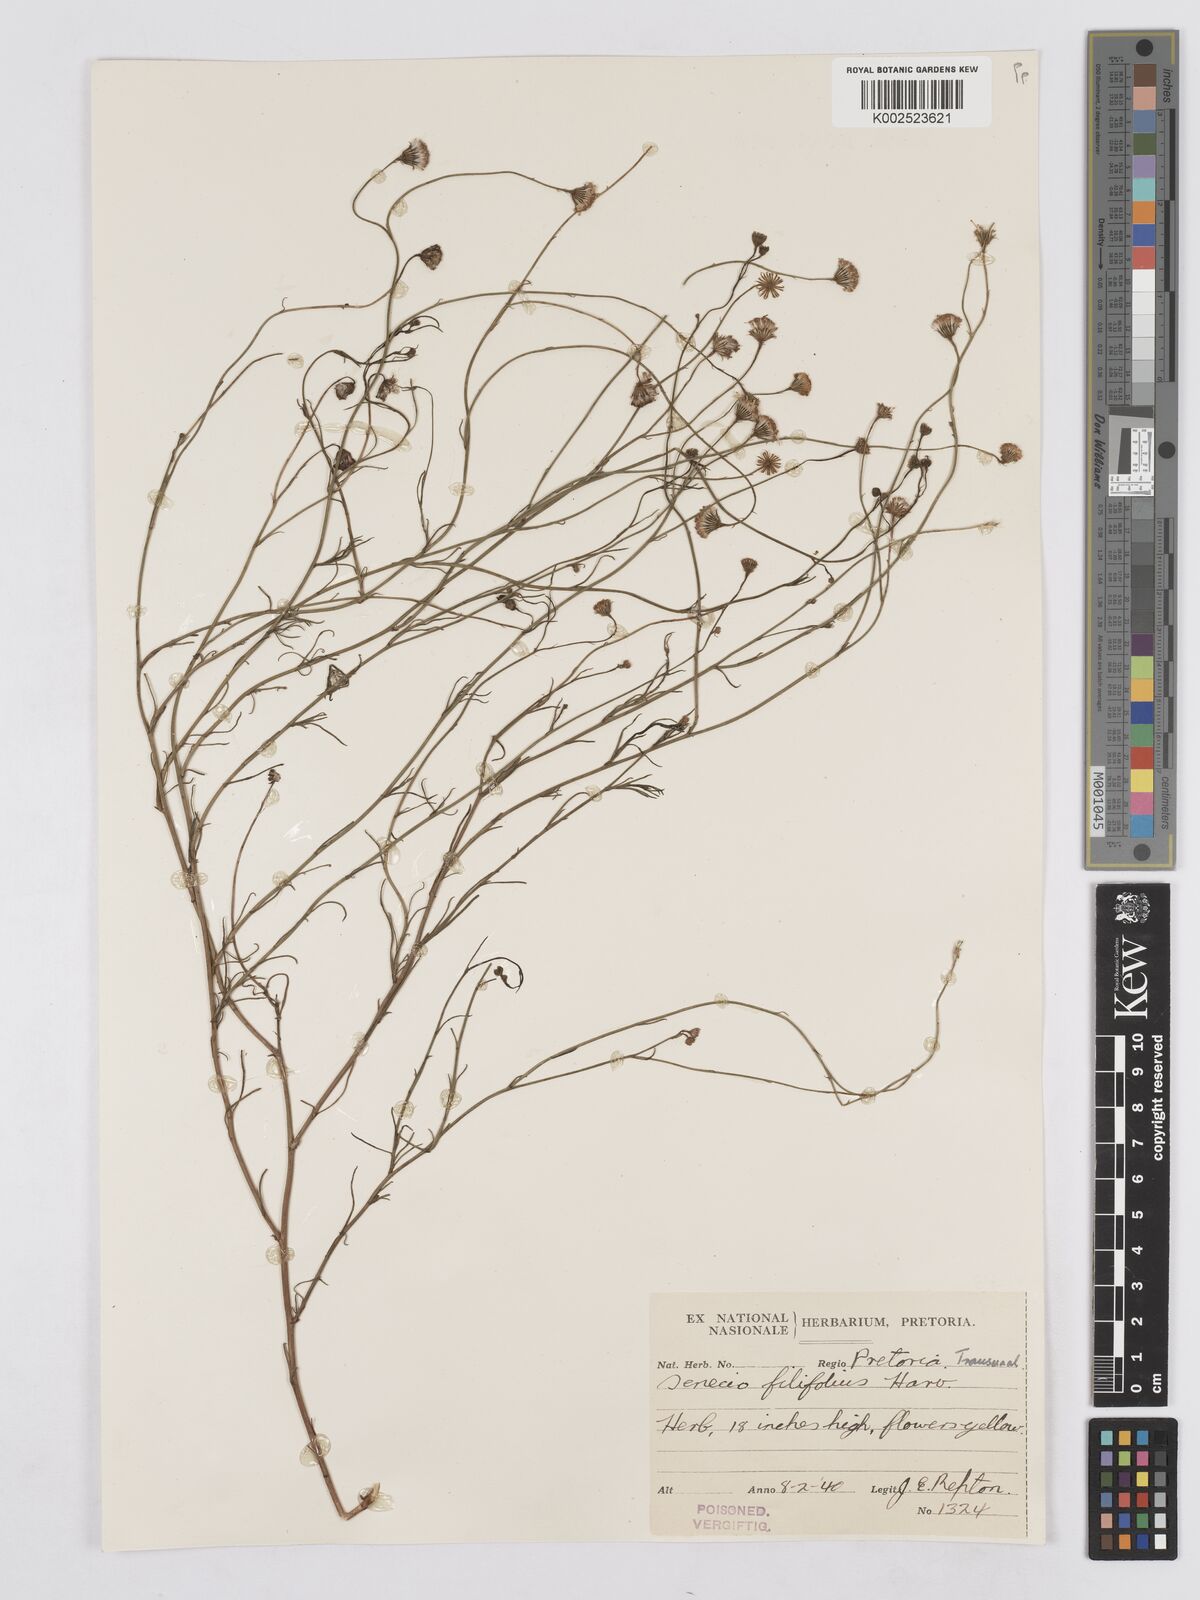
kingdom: Plantae
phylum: Tracheophyta
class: Magnoliopsida
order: Asterales
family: Asteraceae
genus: Senecio
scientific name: Senecio
